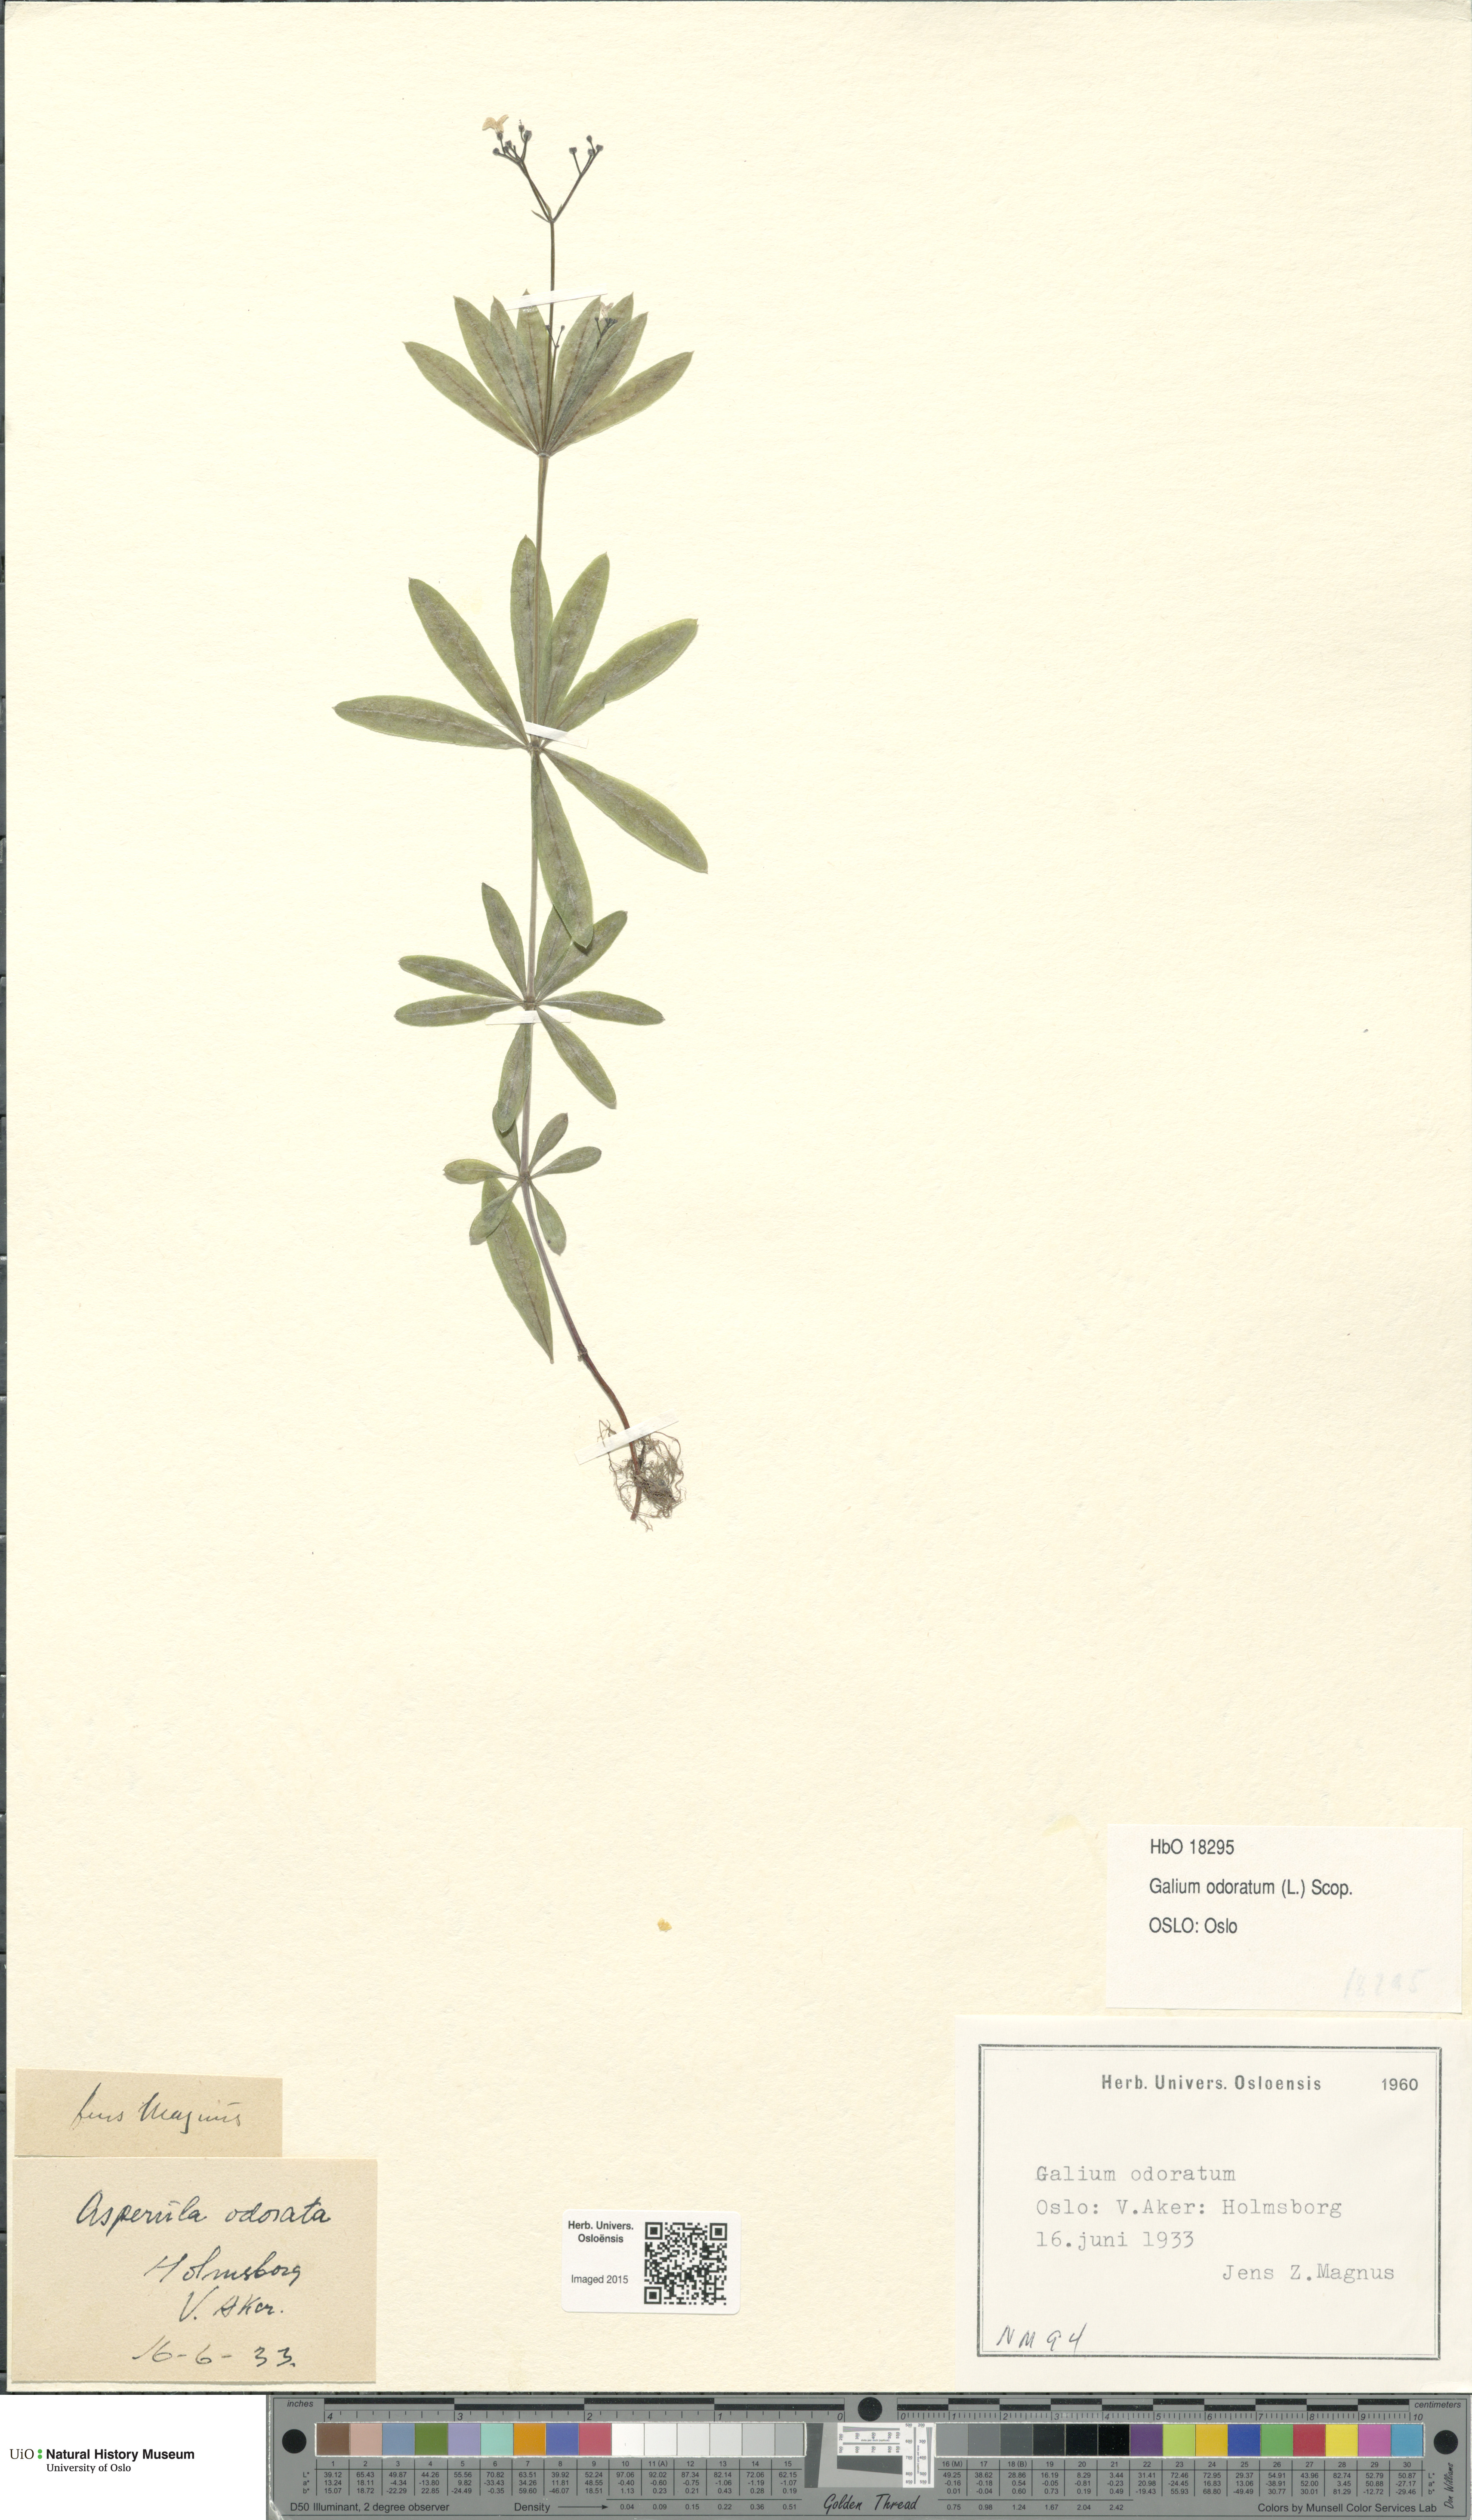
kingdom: Plantae
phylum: Tracheophyta
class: Magnoliopsida
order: Gentianales
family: Rubiaceae
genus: Galium
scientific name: Galium odoratum
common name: Sweet woodruff
